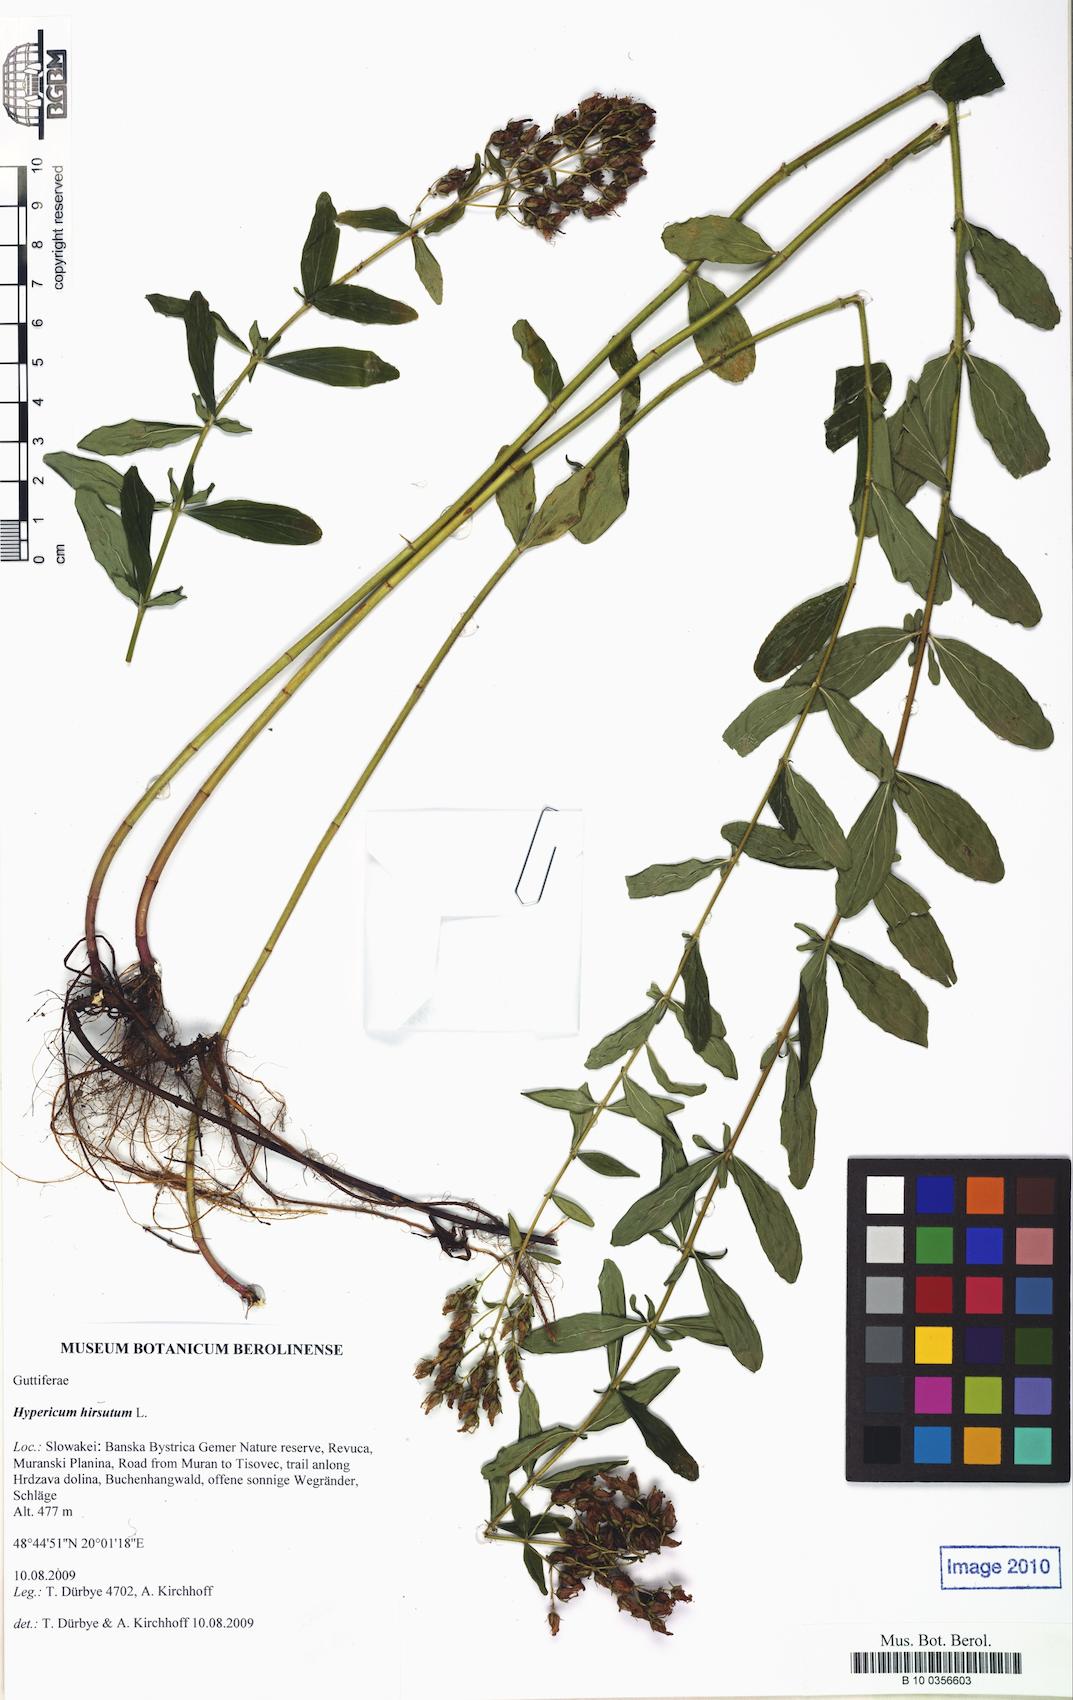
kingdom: Plantae
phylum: Tracheophyta
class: Magnoliopsida
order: Malpighiales
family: Hypericaceae
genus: Hypericum
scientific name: Hypericum hirsutum
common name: Hairy st. john's-wort
